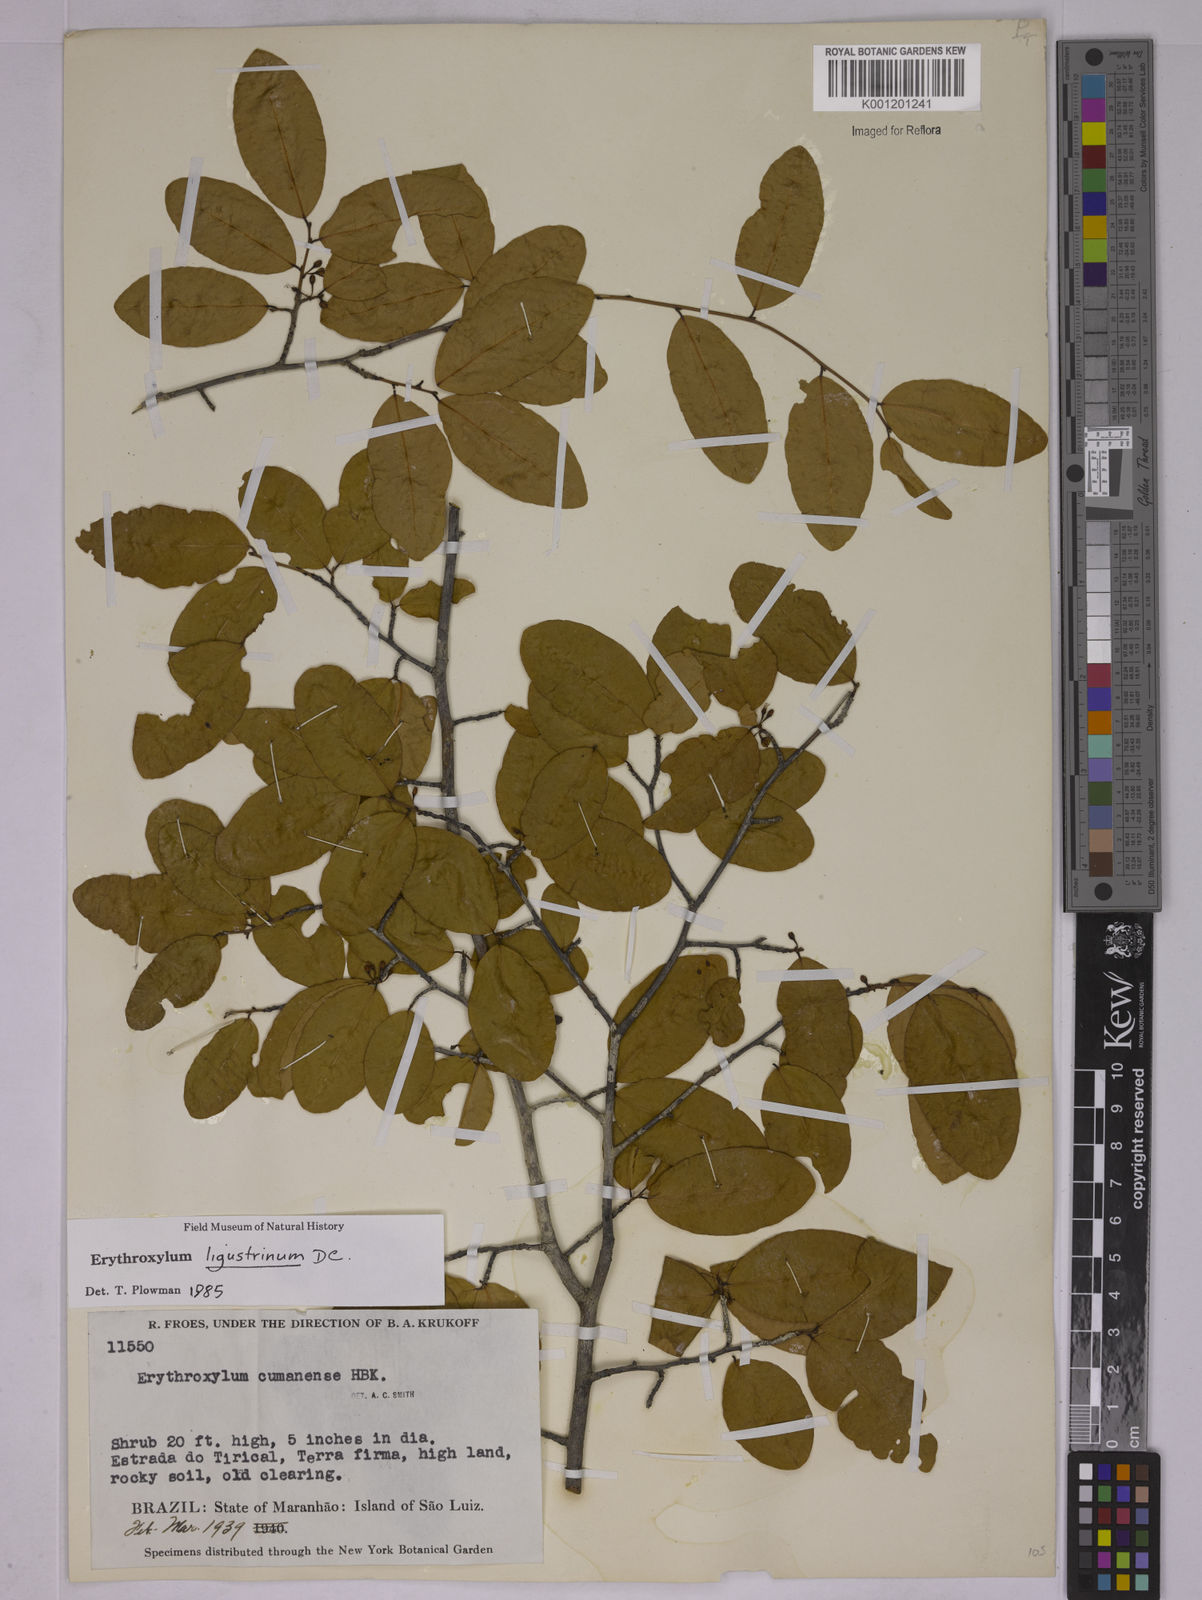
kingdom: Plantae
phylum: Tracheophyta
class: Magnoliopsida
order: Malpighiales
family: Erythroxylaceae
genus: Erythroxylum
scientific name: Erythroxylum ligustrinum
